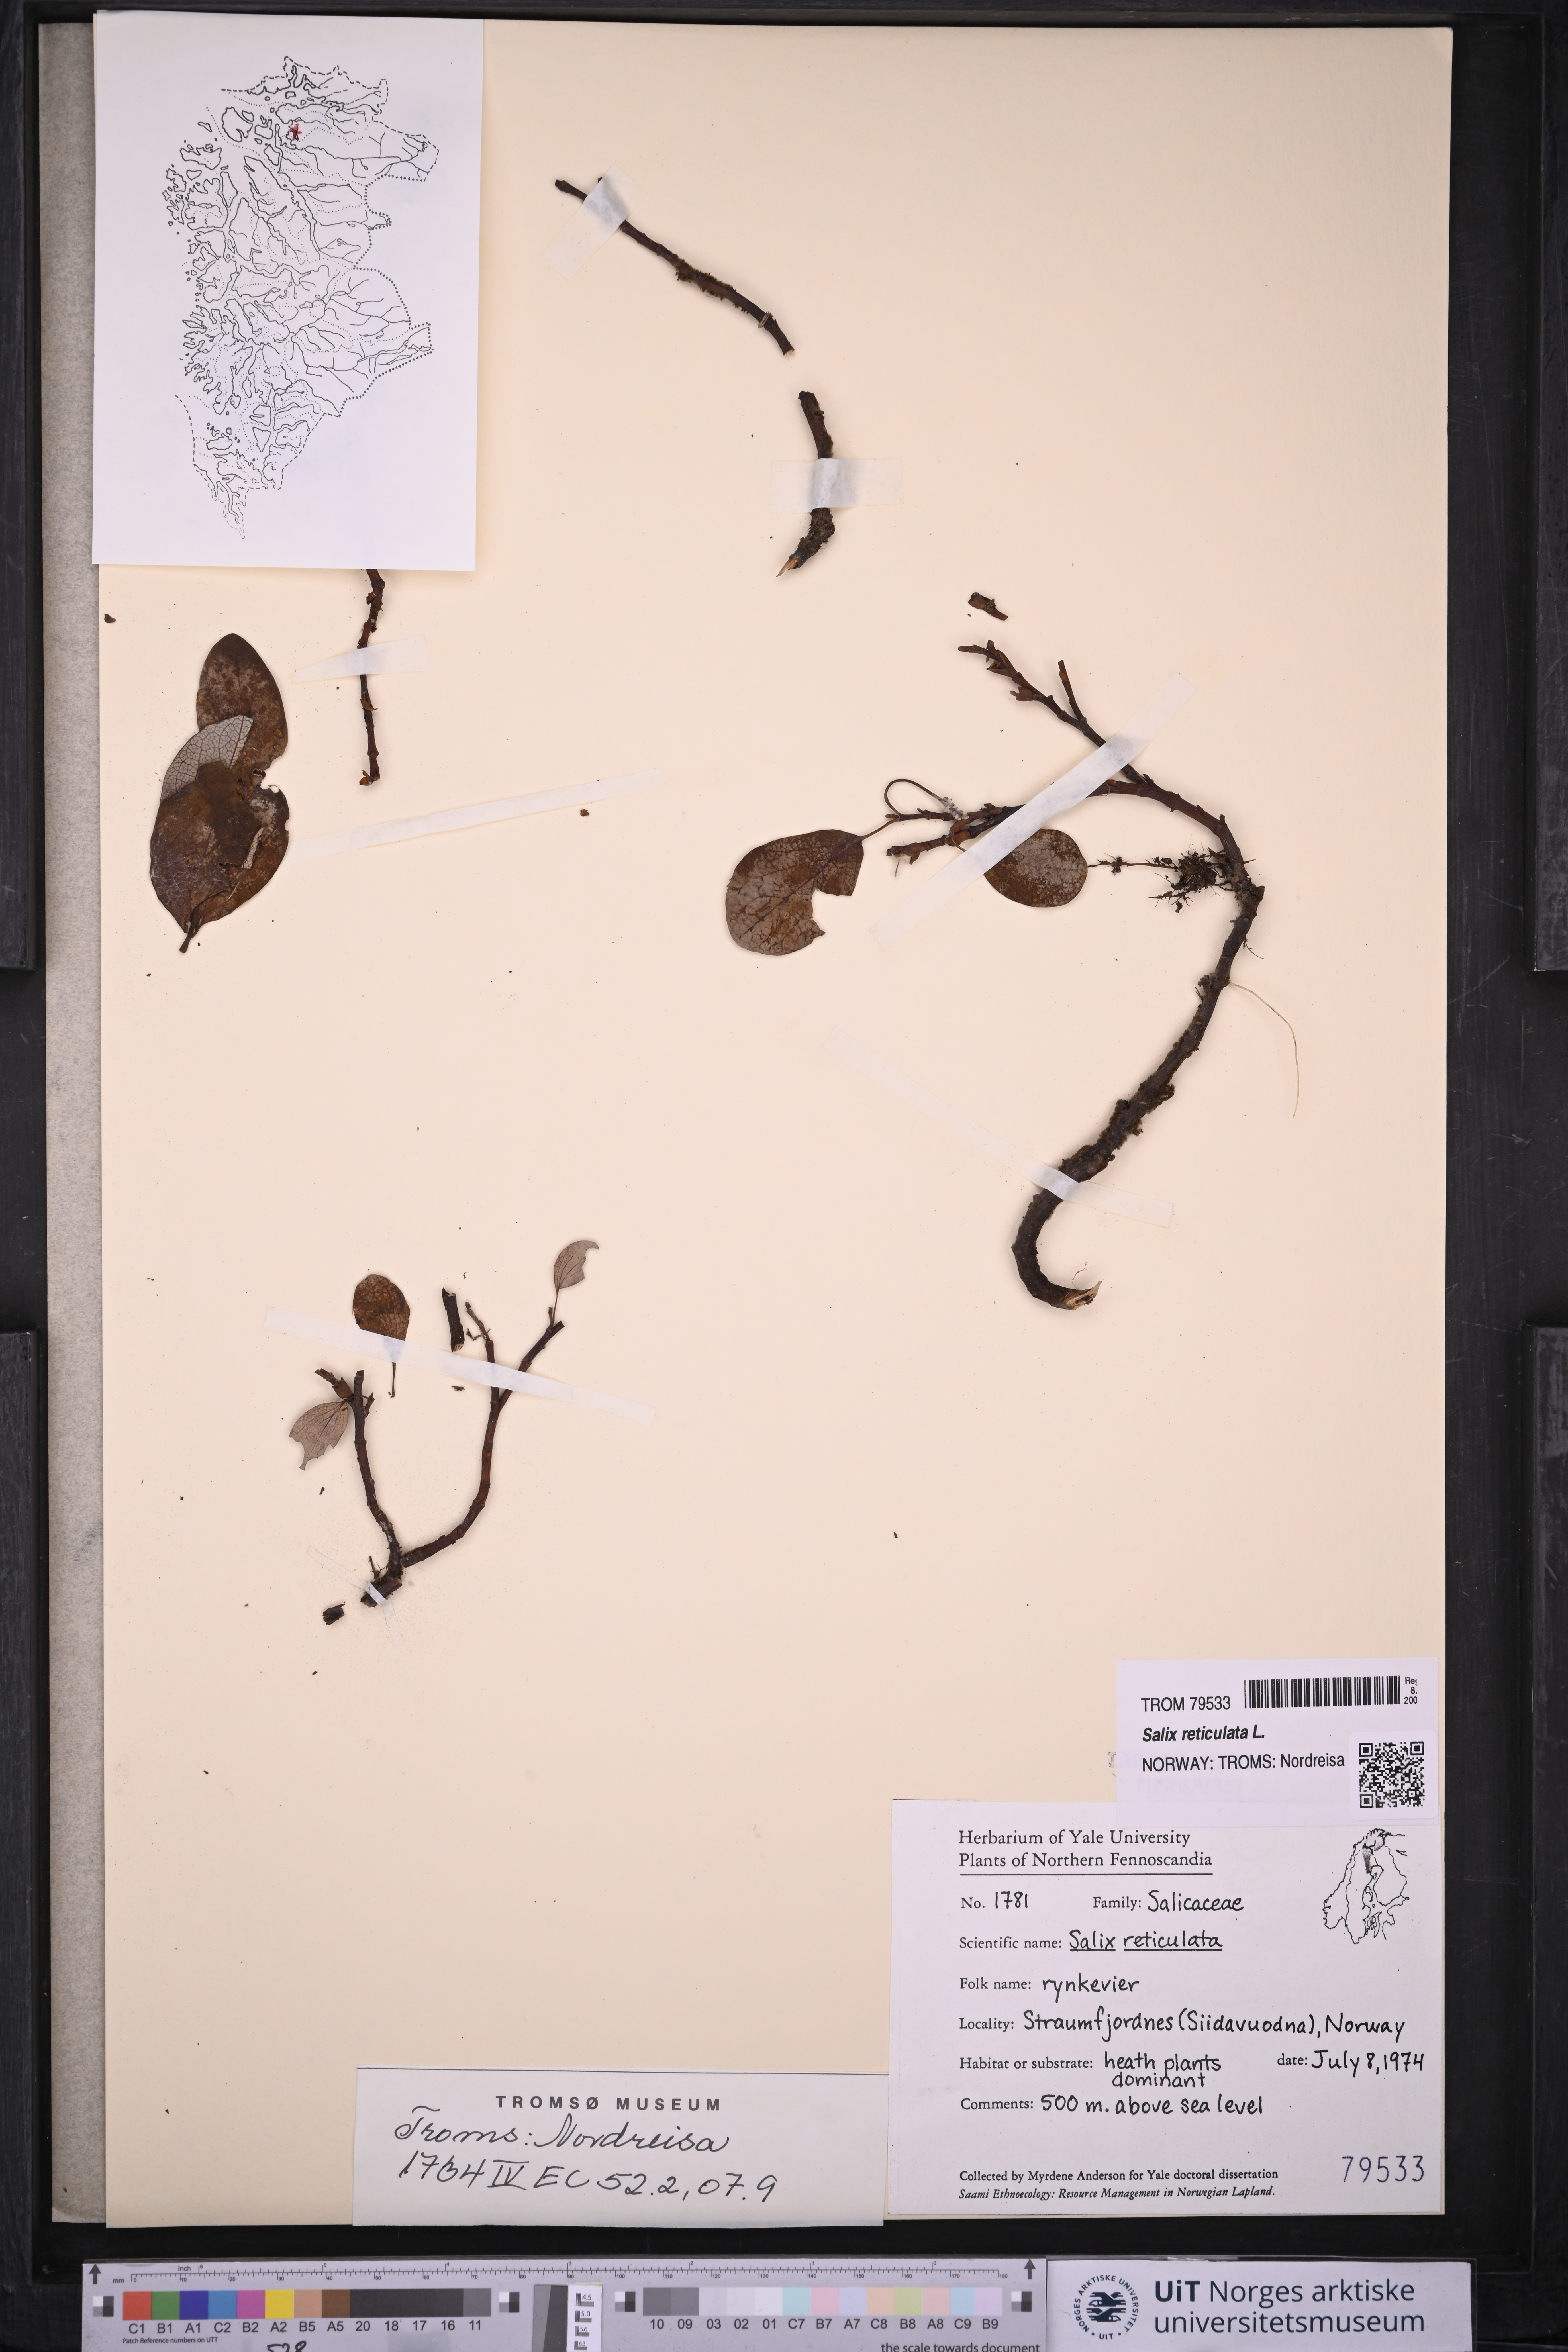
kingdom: Plantae
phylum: Tracheophyta
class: Magnoliopsida
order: Malpighiales
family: Salicaceae
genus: Salix
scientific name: Salix reticulata
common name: Net-leaved willow
